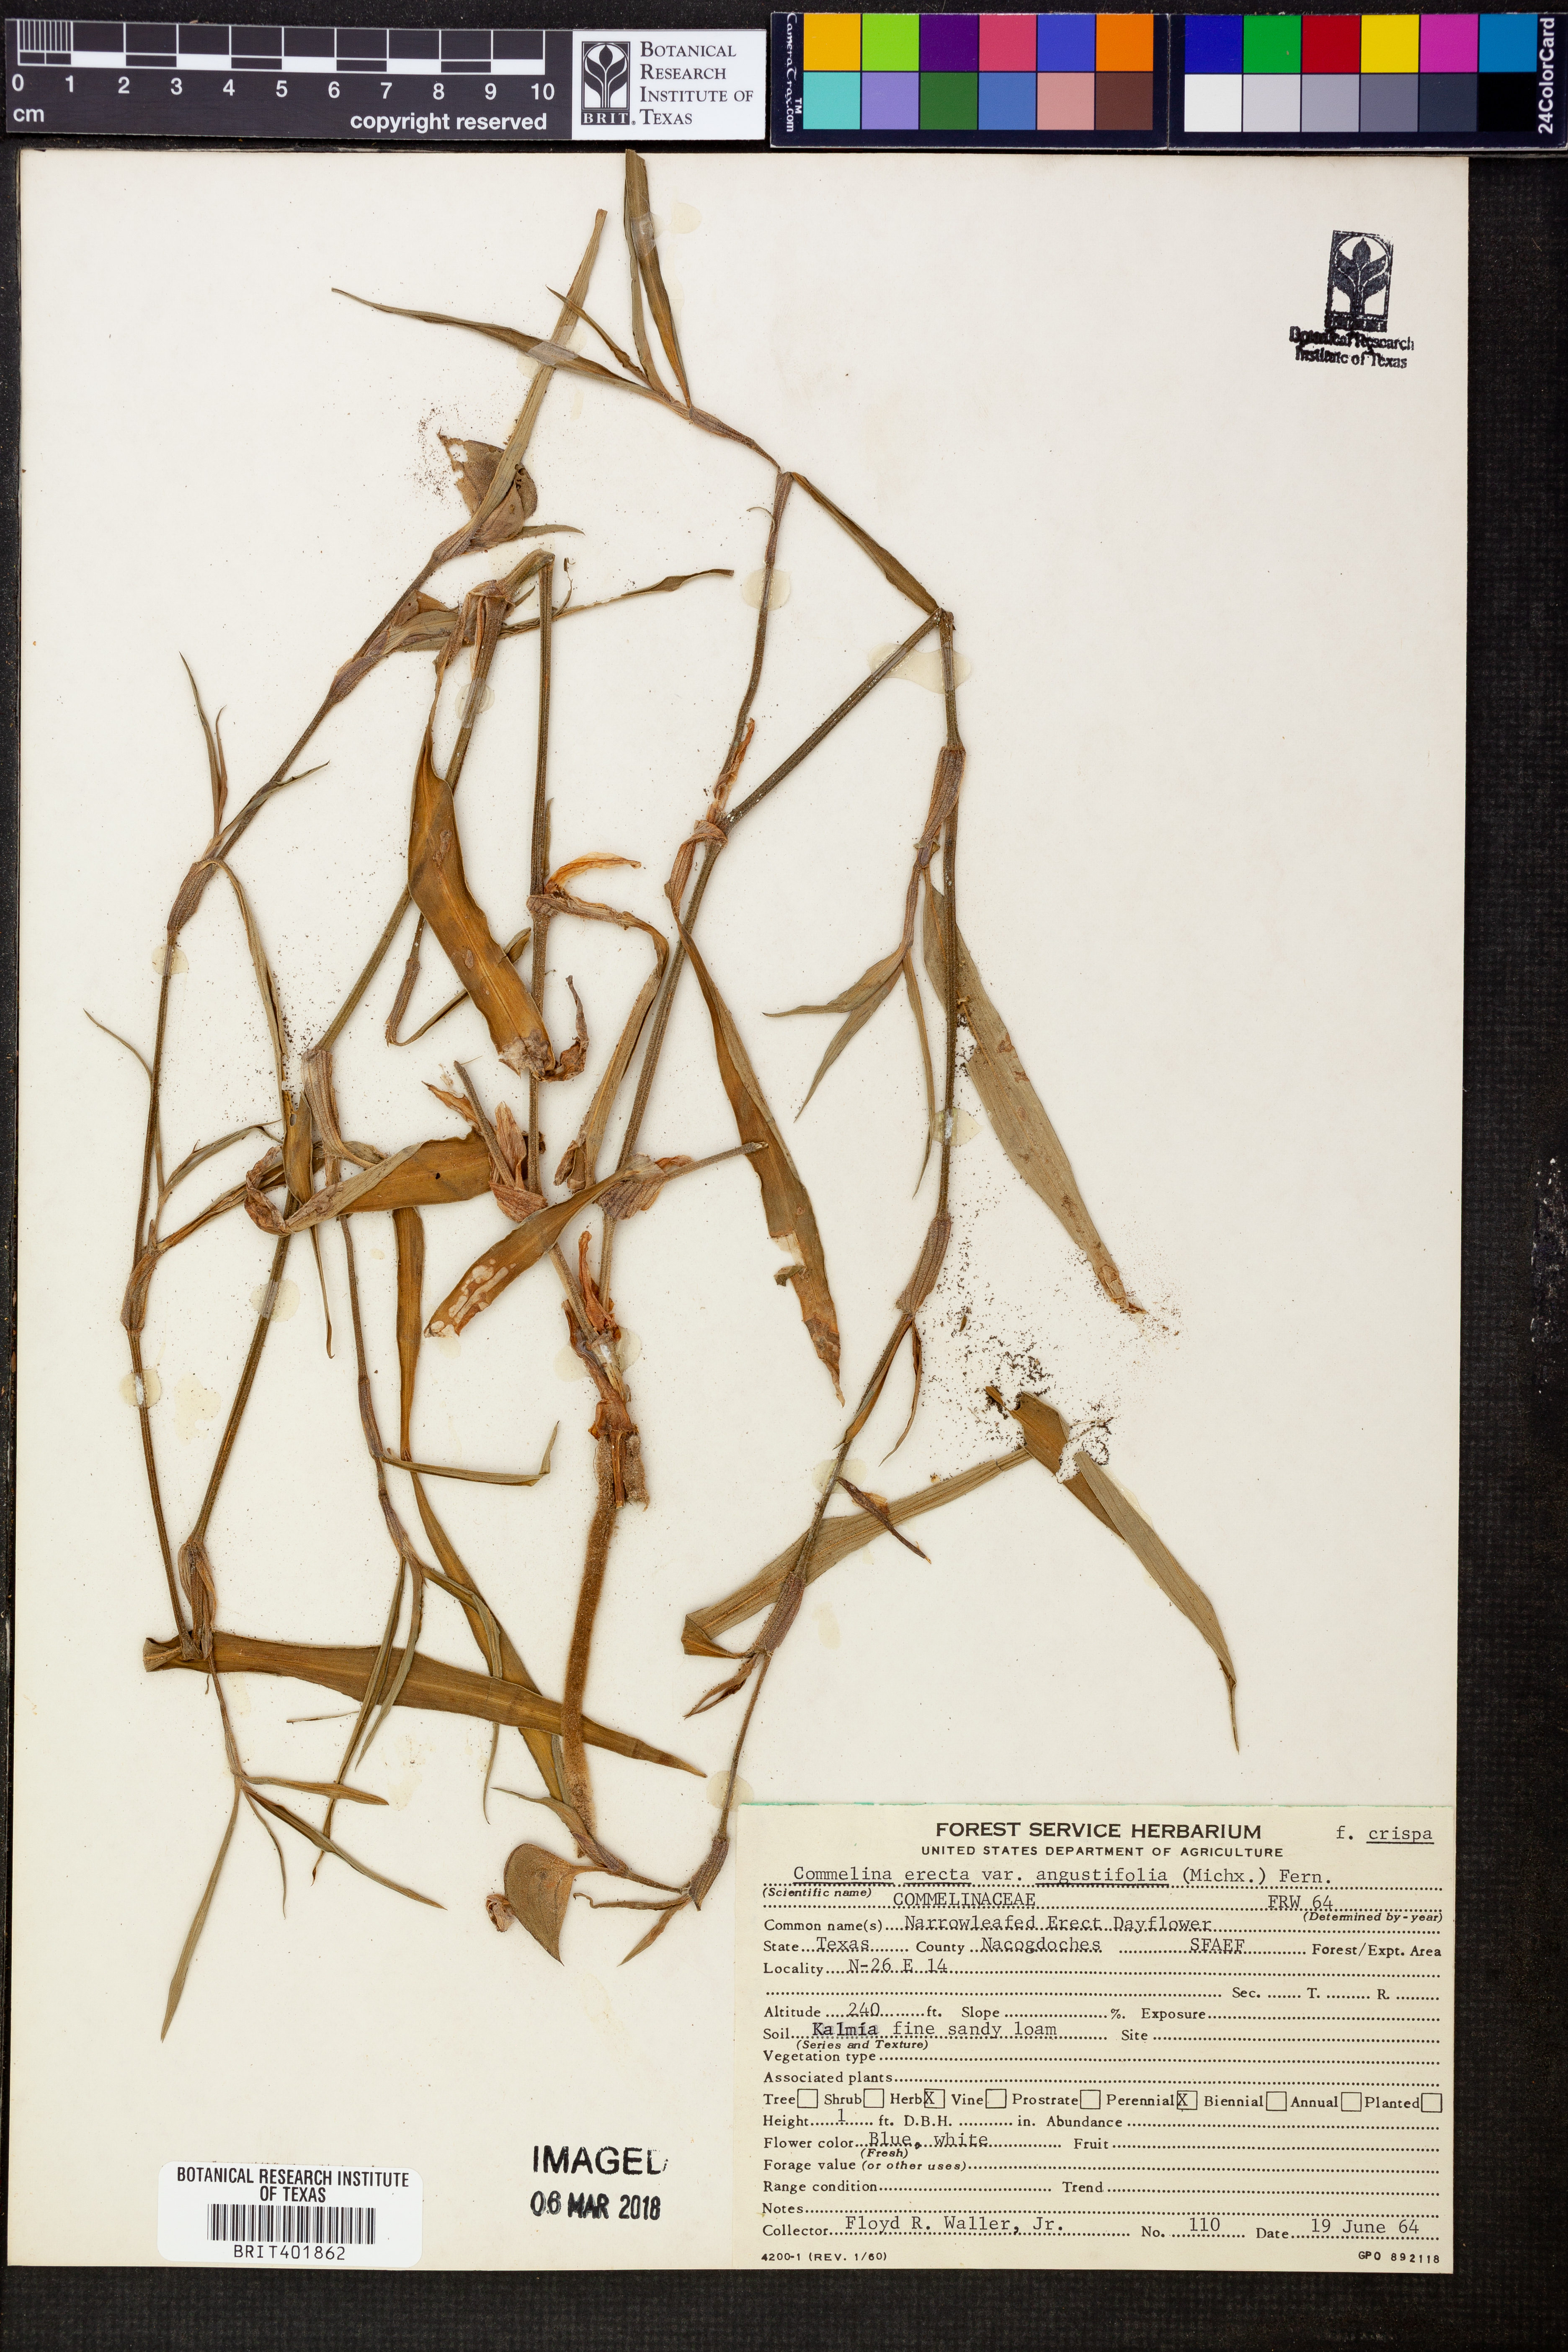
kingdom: Plantae
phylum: Tracheophyta
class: Liliopsida
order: Commelinales
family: Commelinaceae
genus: Commelina
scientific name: Commelina erecta
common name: Blousel blommetjie
